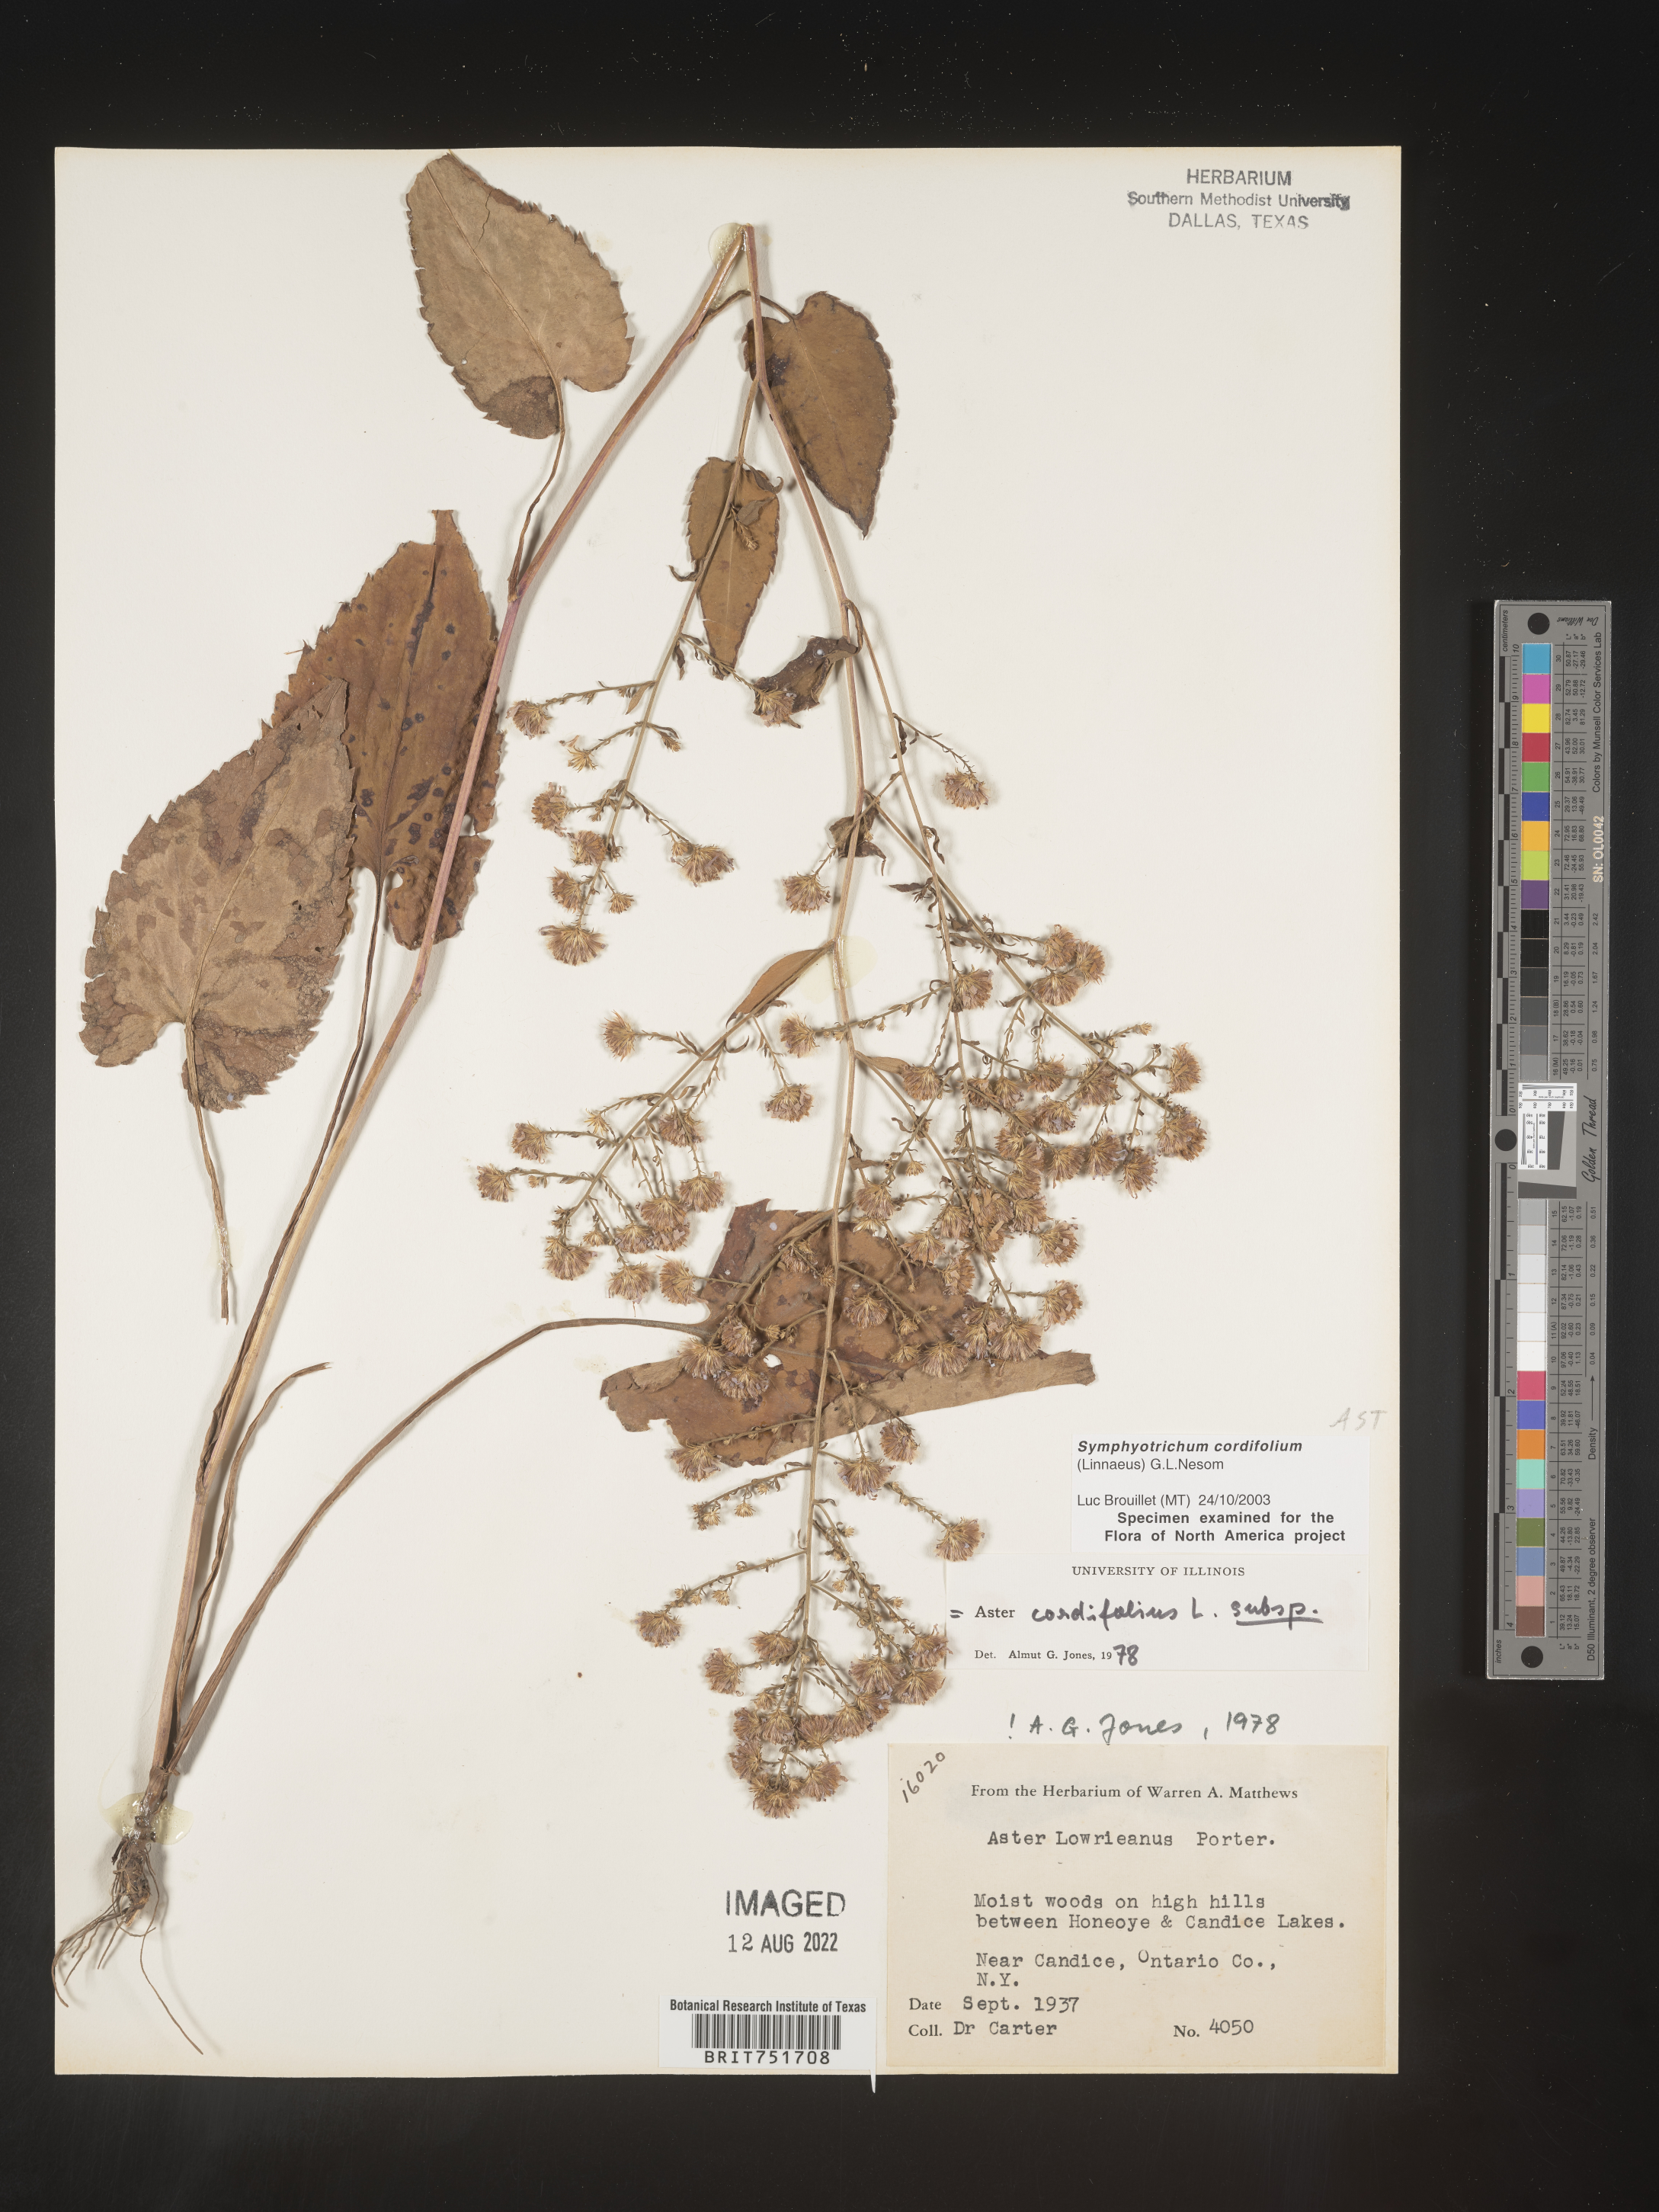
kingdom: Plantae
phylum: Tracheophyta
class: Magnoliopsida
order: Asterales
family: Asteraceae
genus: Symphyotrichum
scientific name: Symphyotrichum cordifolium
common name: Beeweed
